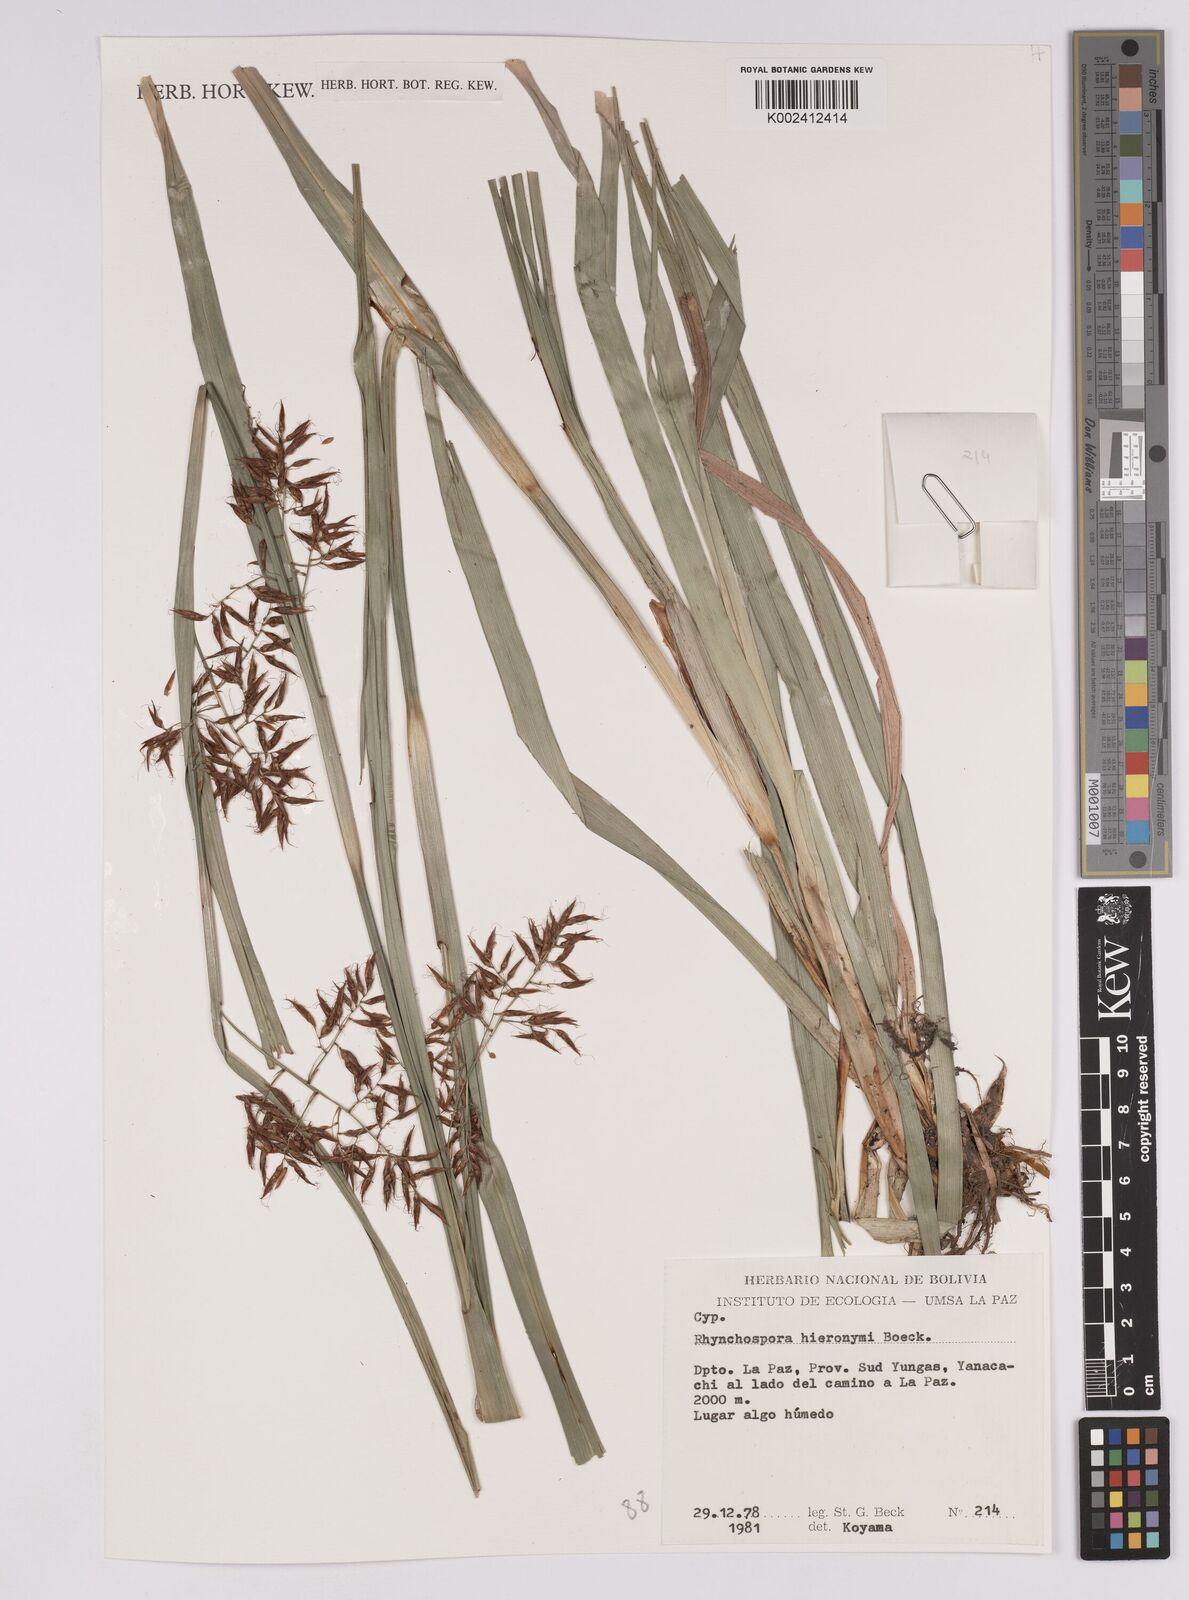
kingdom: Plantae
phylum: Tracheophyta
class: Liliopsida
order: Poales
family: Cyperaceae
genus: Rhynchospora
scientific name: Rhynchospora hieronymi
